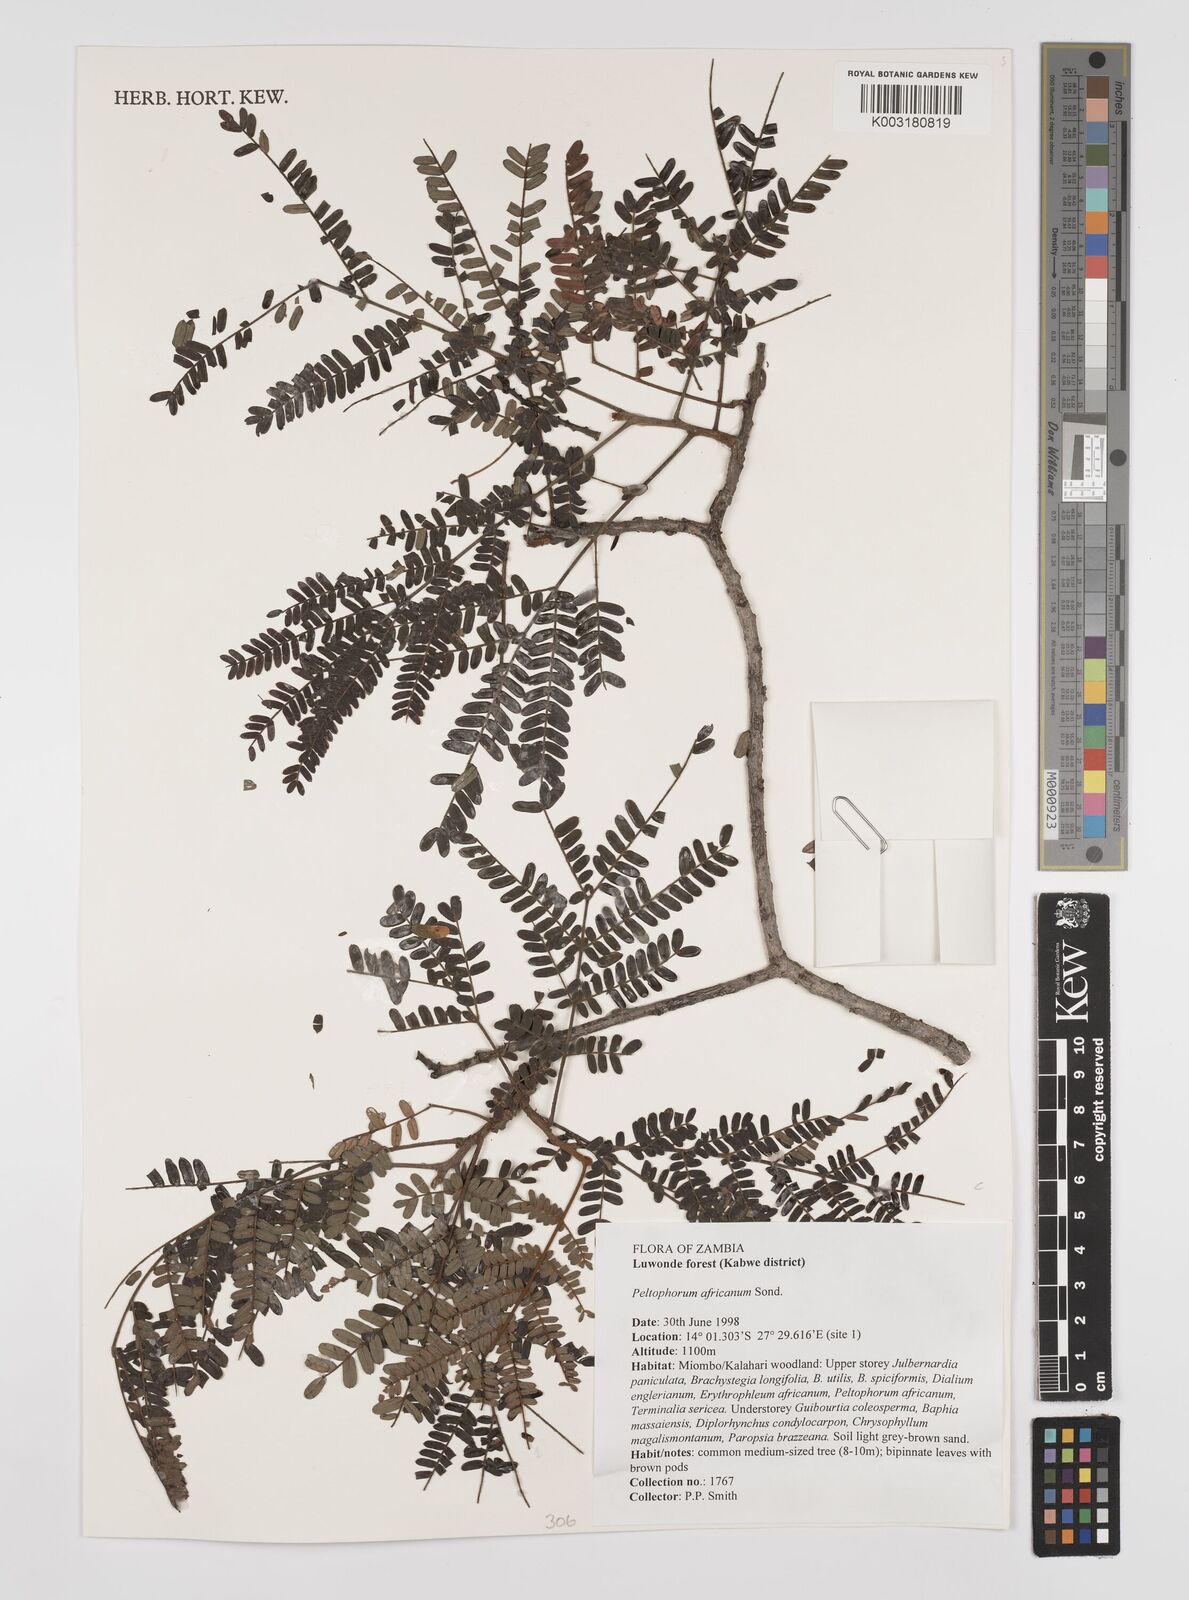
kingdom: Plantae
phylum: Tracheophyta
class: Magnoliopsida
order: Fabales
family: Fabaceae
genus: Peltophorum
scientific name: Peltophorum africanum
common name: African black wattle
